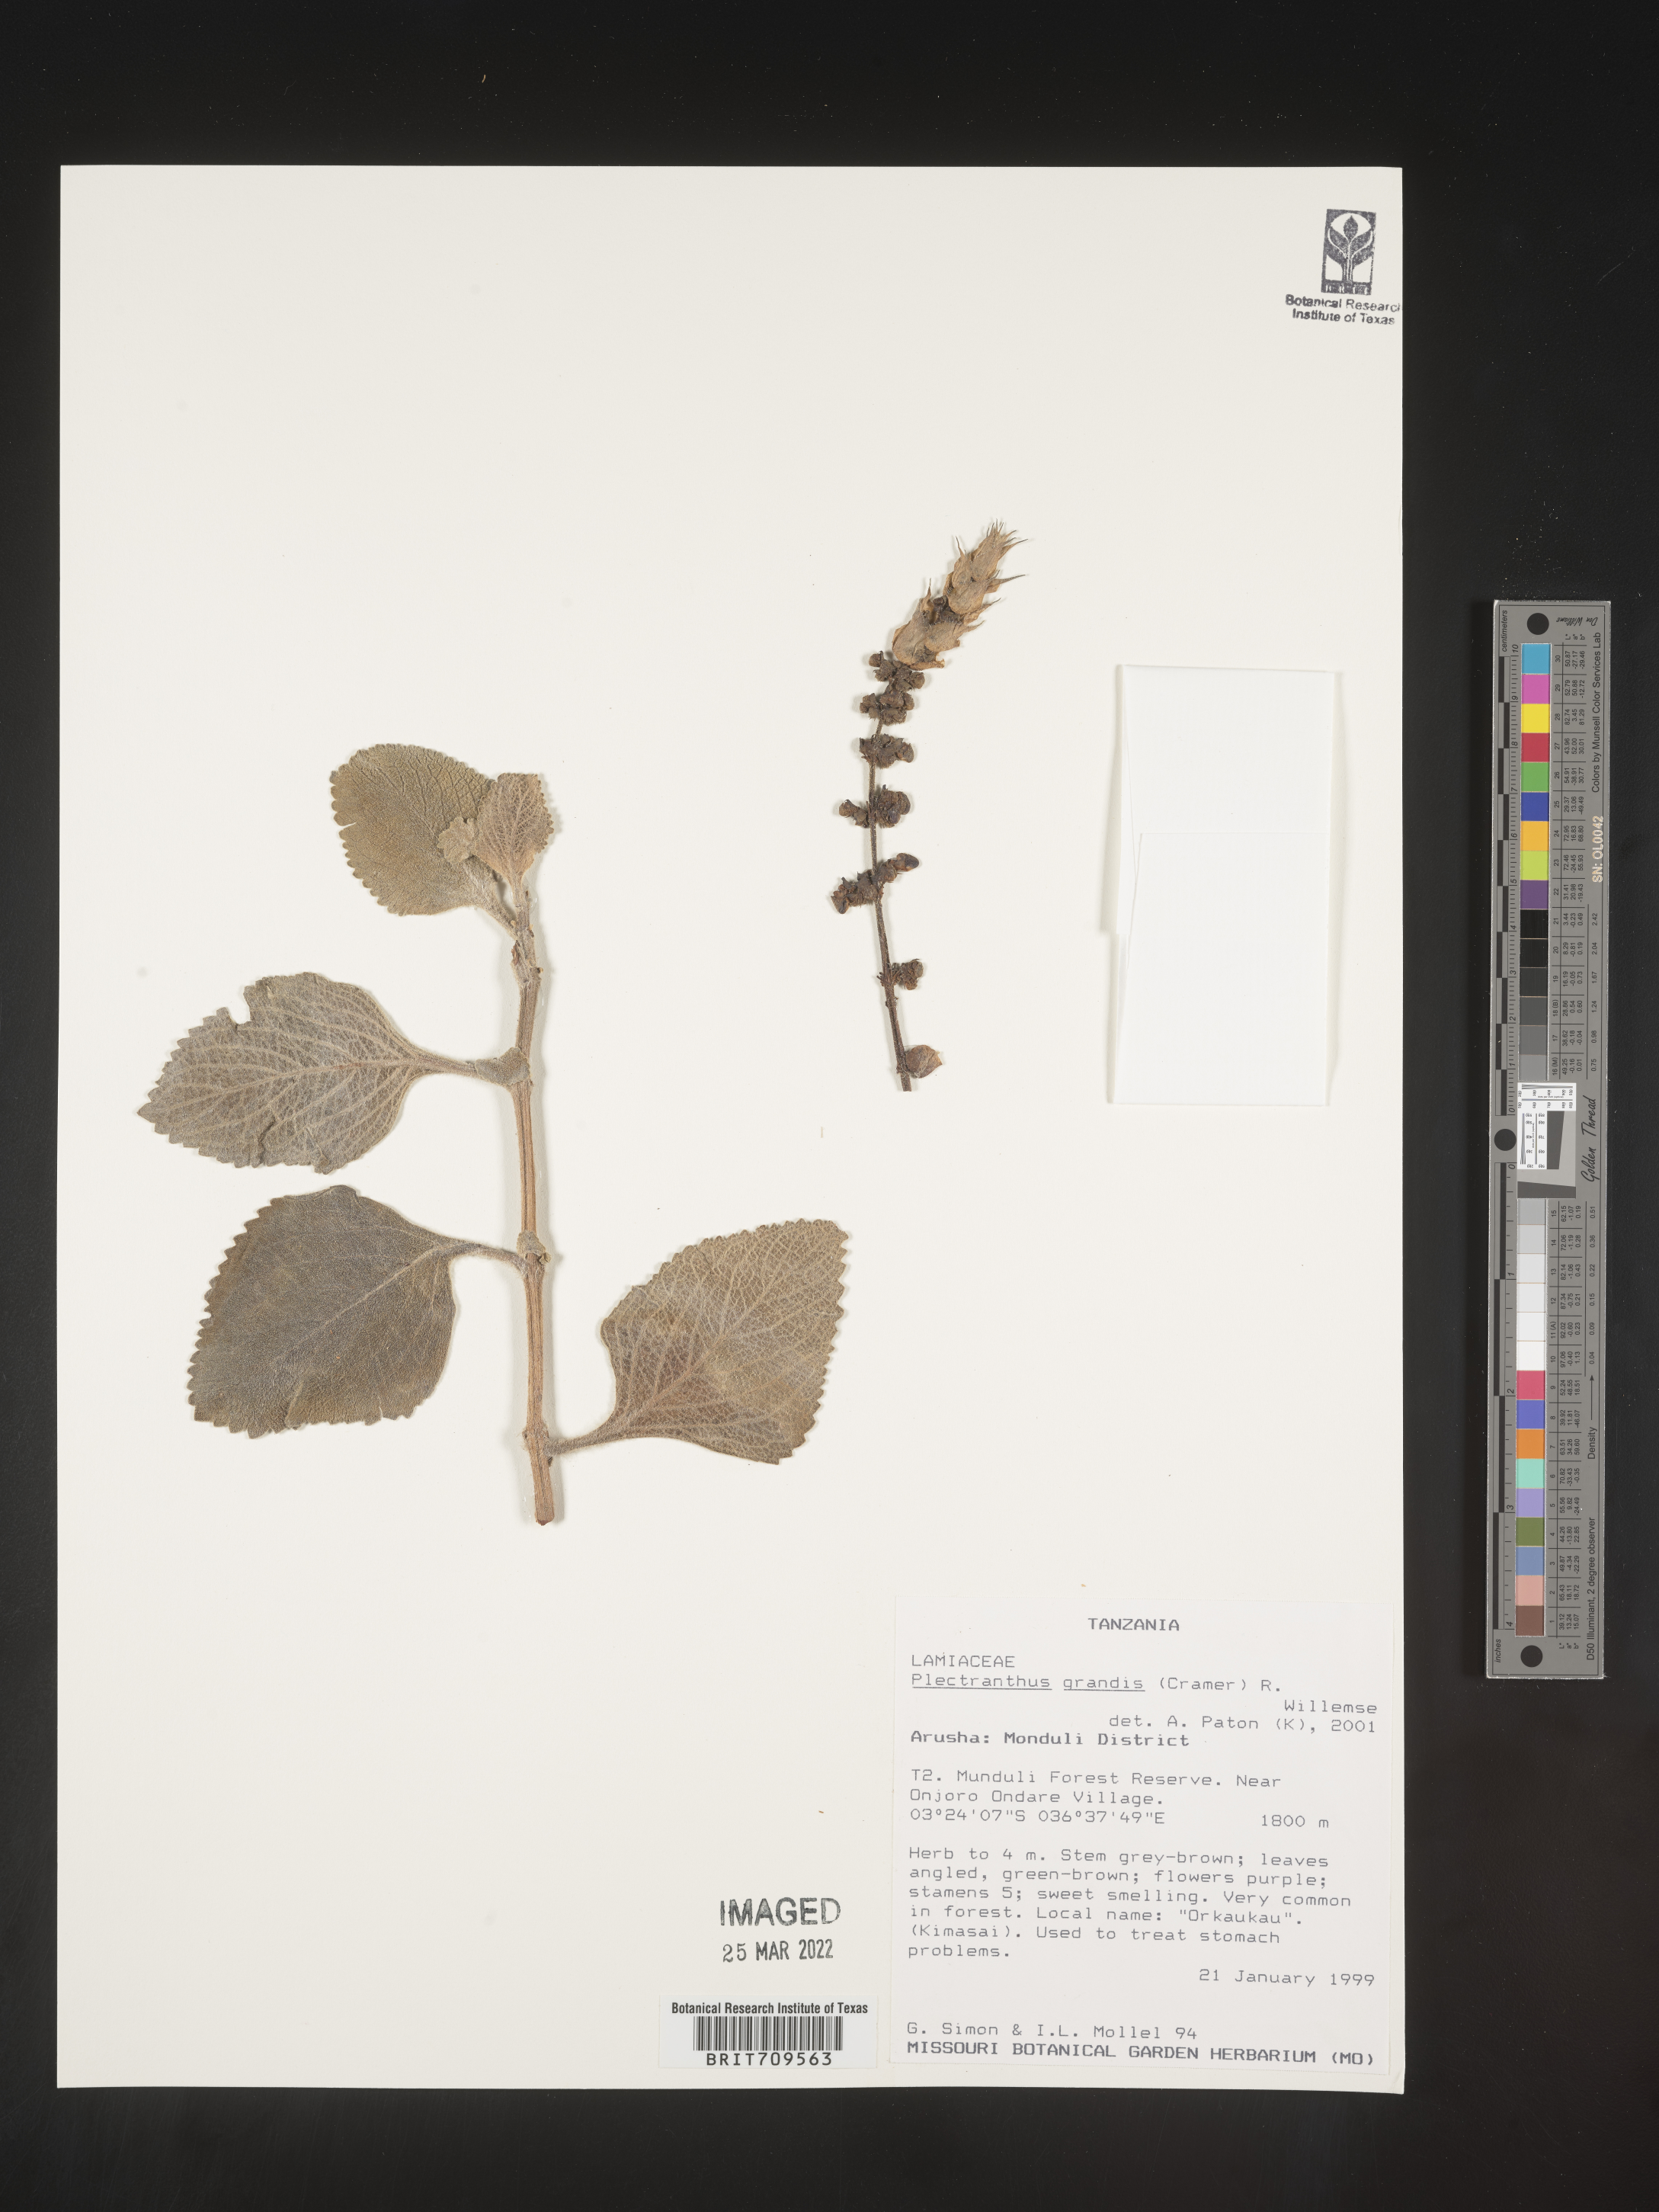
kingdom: Plantae
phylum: Tracheophyta
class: Magnoliopsida
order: Lamiales
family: Lamiaceae
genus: Plectranthus
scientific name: Plectranthus
